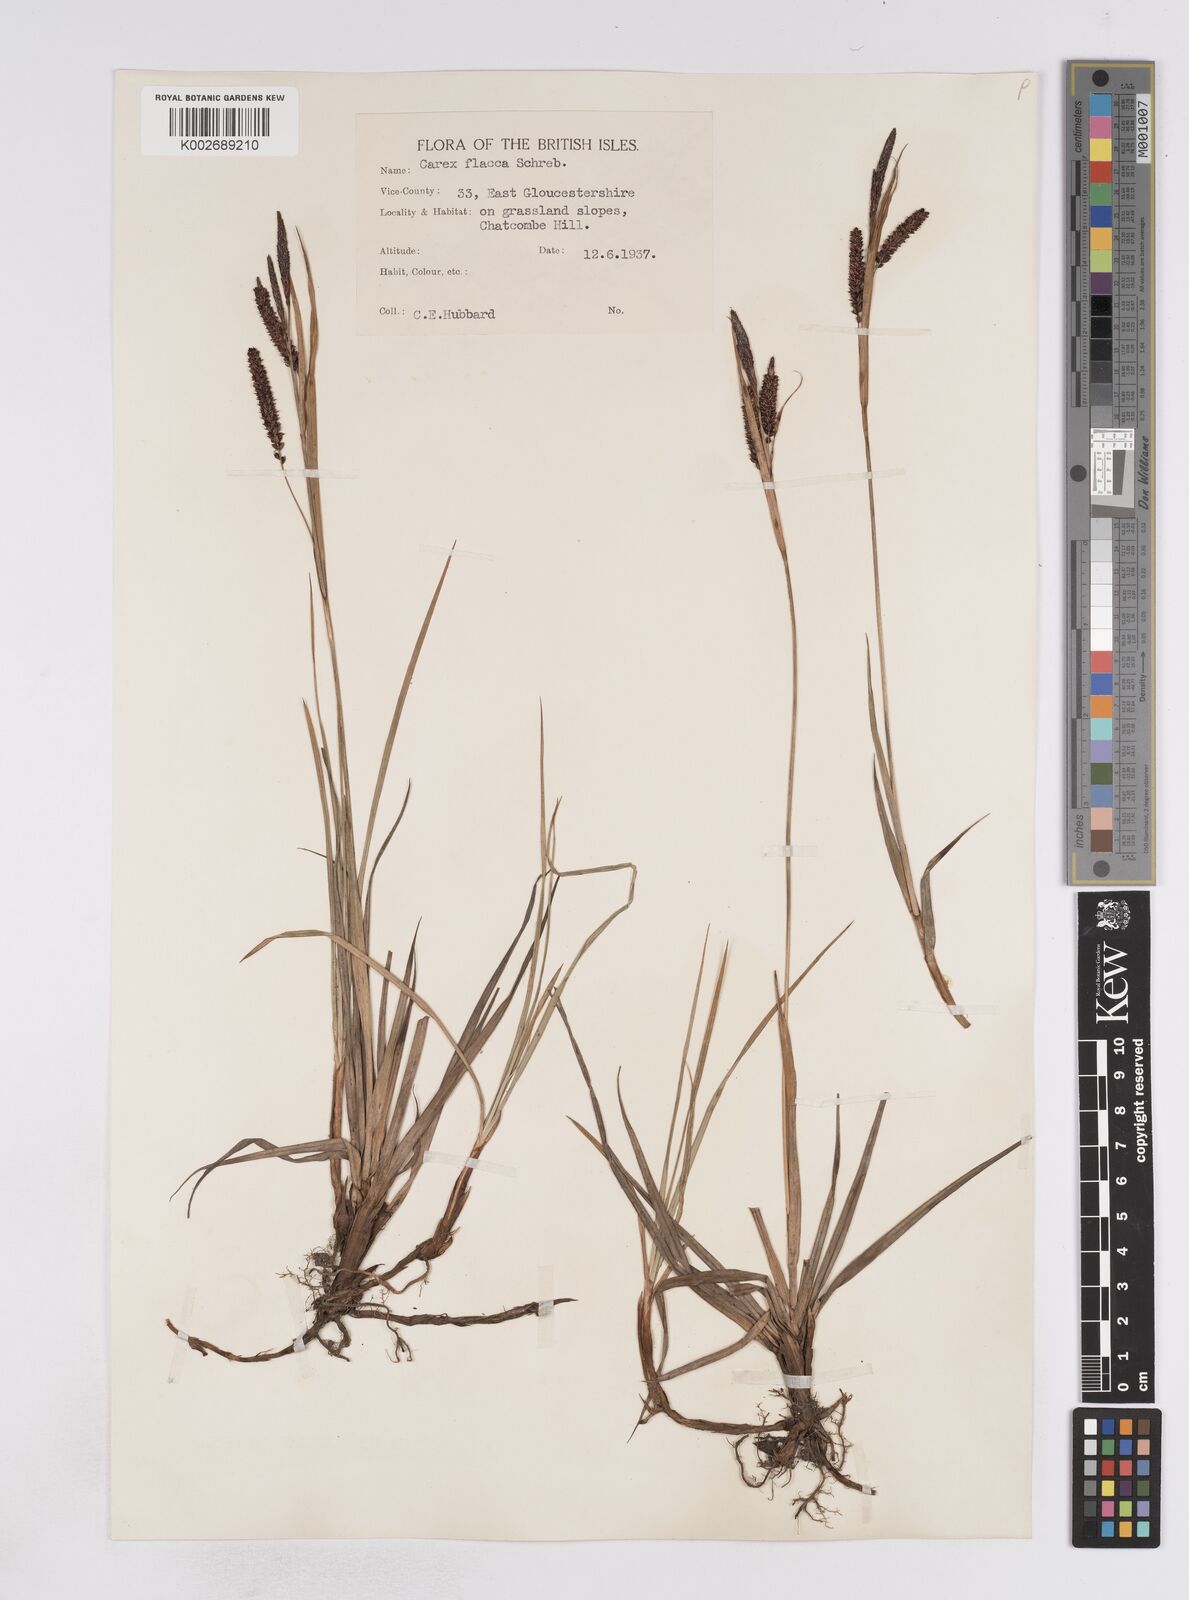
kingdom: Plantae
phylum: Tracheophyta
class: Liliopsida
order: Poales
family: Cyperaceae
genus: Carex
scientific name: Carex flacca
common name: Glaucous sedge
